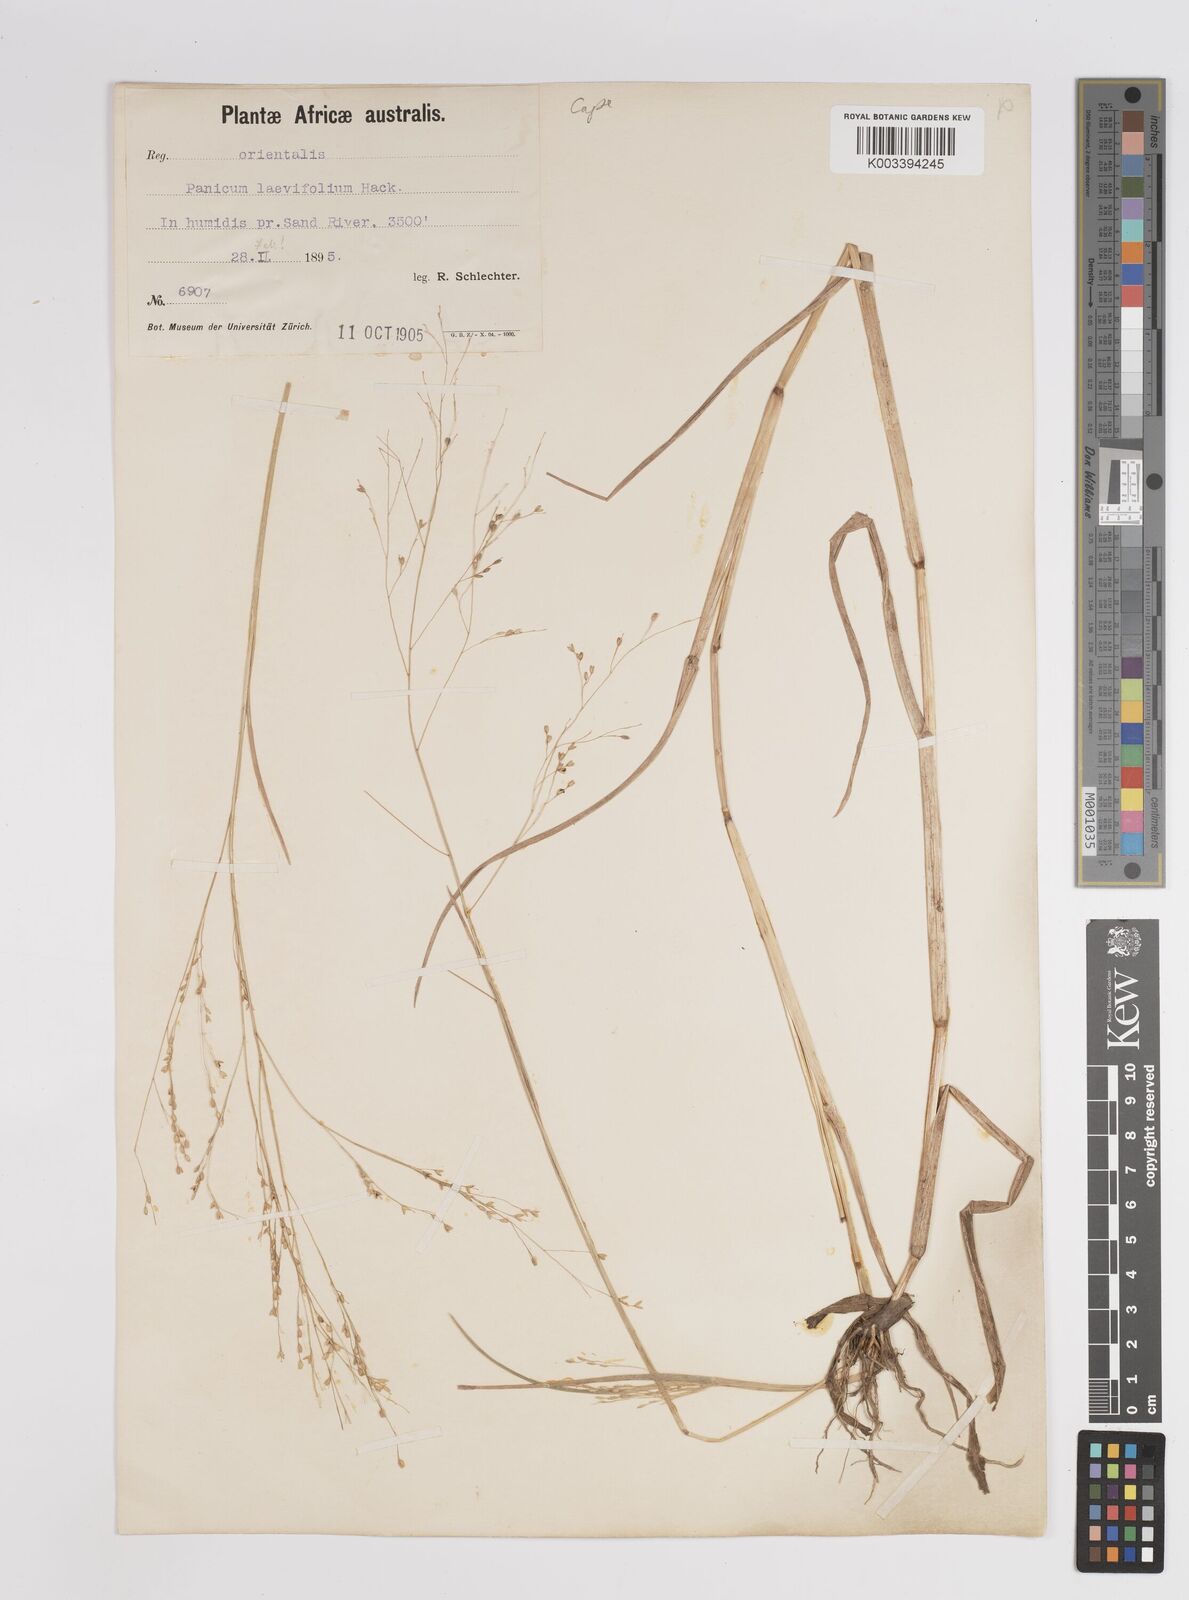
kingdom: Plantae
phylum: Tracheophyta
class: Liliopsida
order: Poales
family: Poaceae
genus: Panicum
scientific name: Panicum schinzii
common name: Sweet grass
